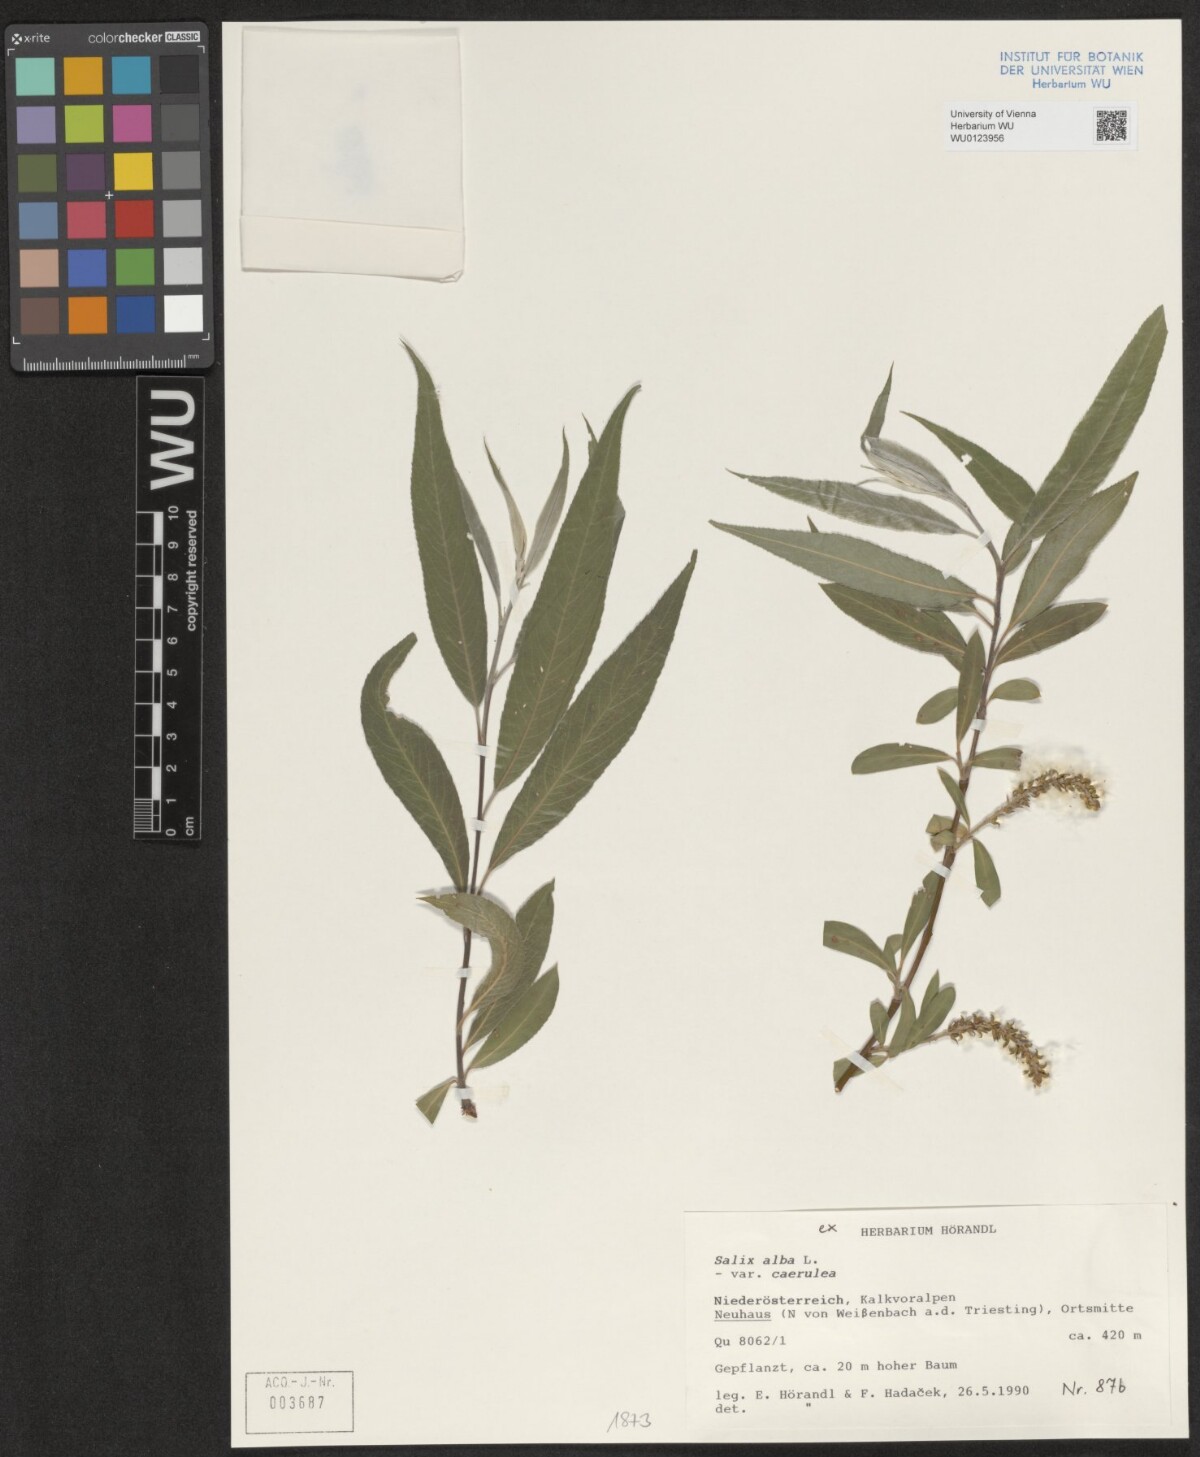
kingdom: Plantae
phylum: Tracheophyta
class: Magnoliopsida
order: Malpighiales
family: Salicaceae
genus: Salix
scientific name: Salix alba
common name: White willow
